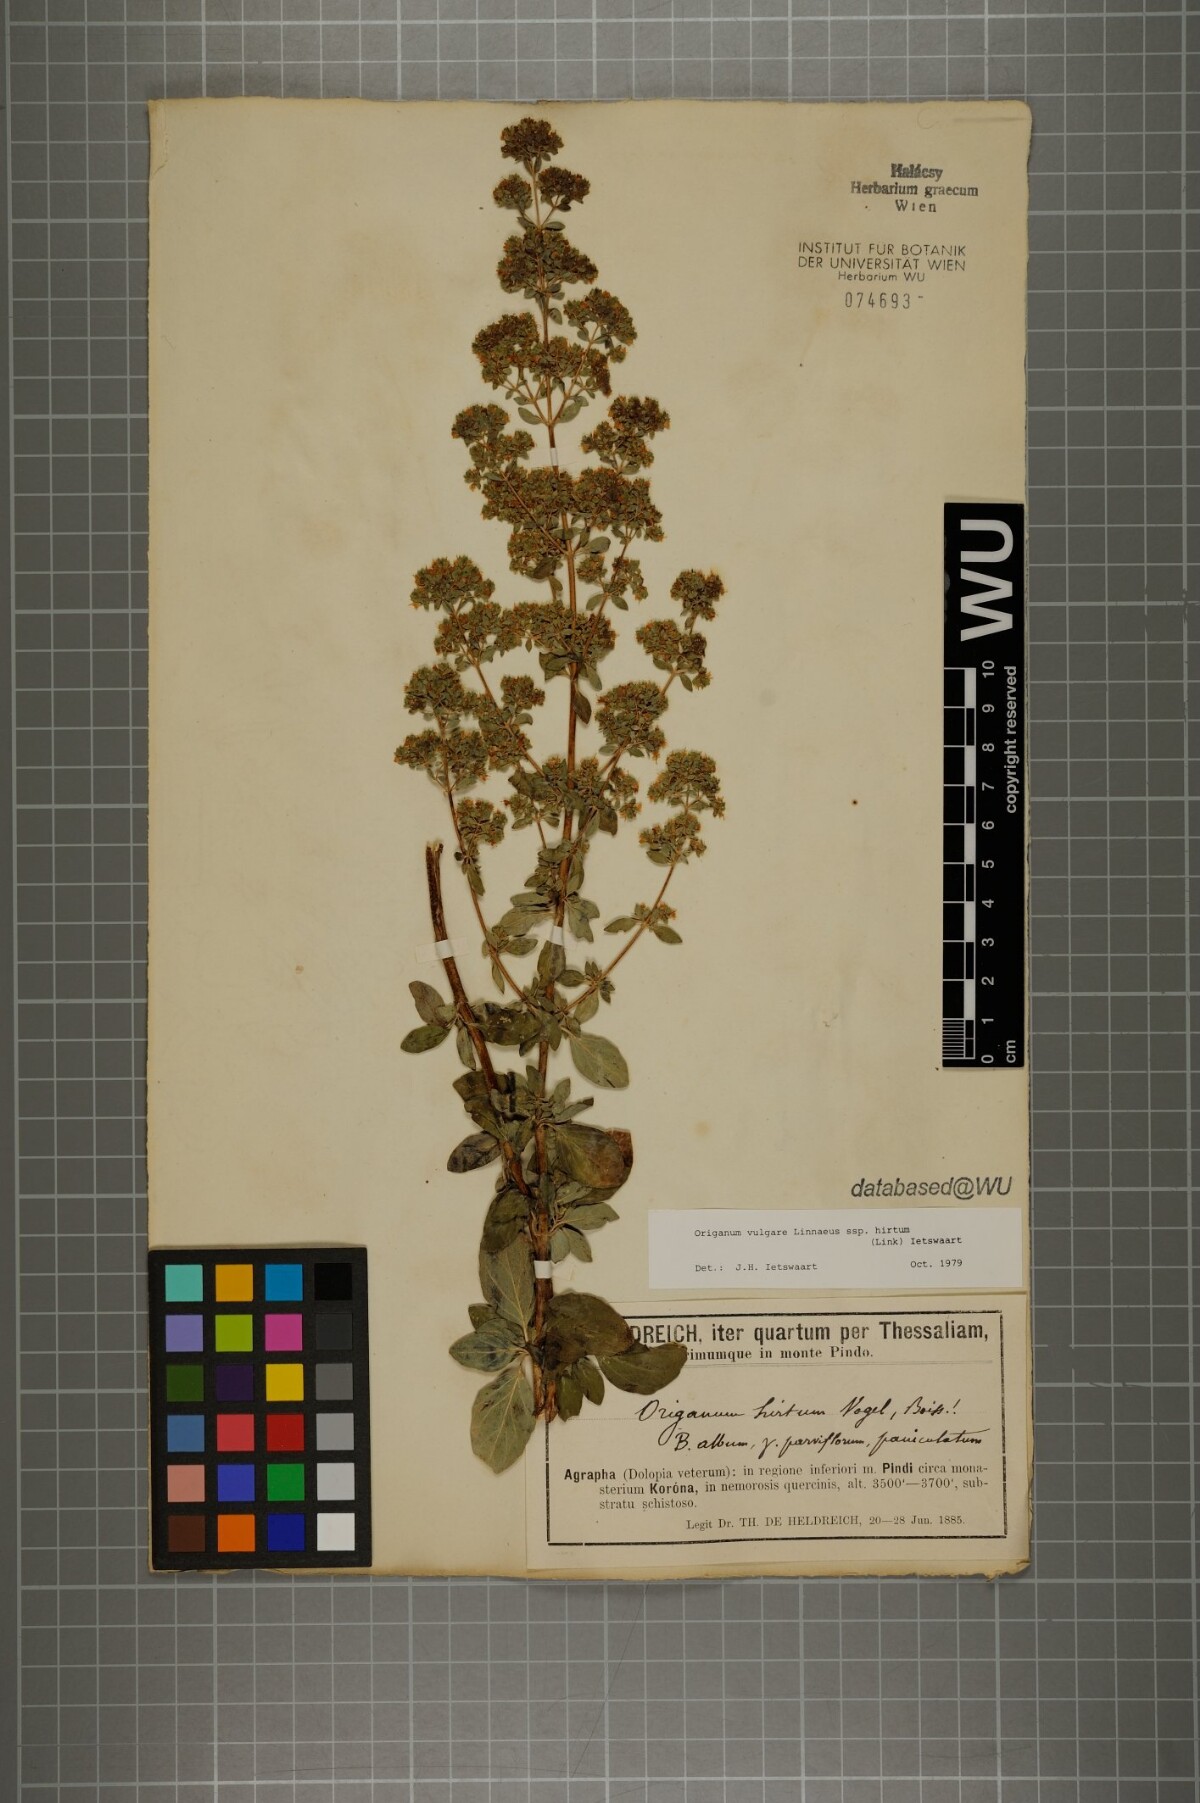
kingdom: Plantae
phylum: Tracheophyta
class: Magnoliopsida
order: Lamiales
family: Lamiaceae
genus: Origanum
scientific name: Origanum vulgare
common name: Wild marjoram
